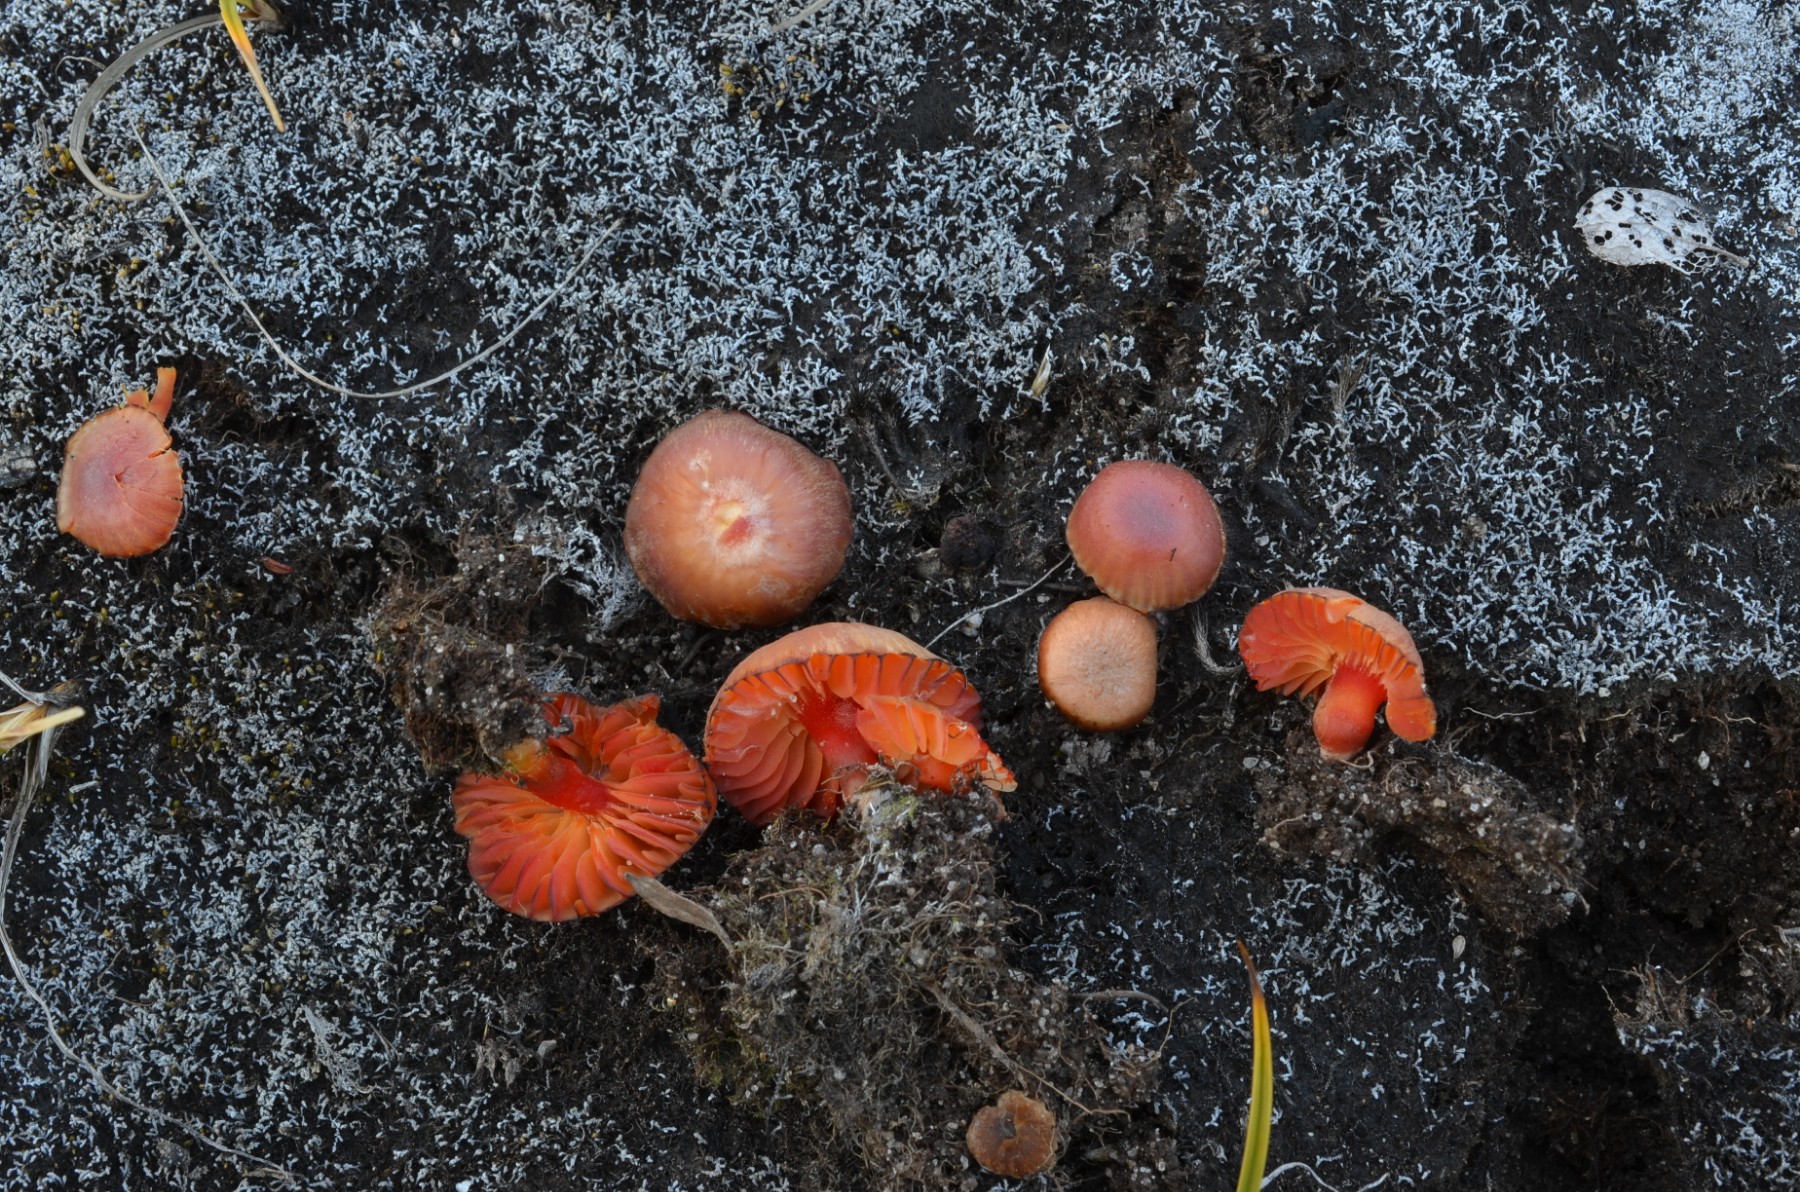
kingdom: Fungi
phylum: Basidiomycota
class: Agaricomycetes
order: Agaricales
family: Hygrophoraceae
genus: Hygrocybe
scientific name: Hygrocybe
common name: vokshat
